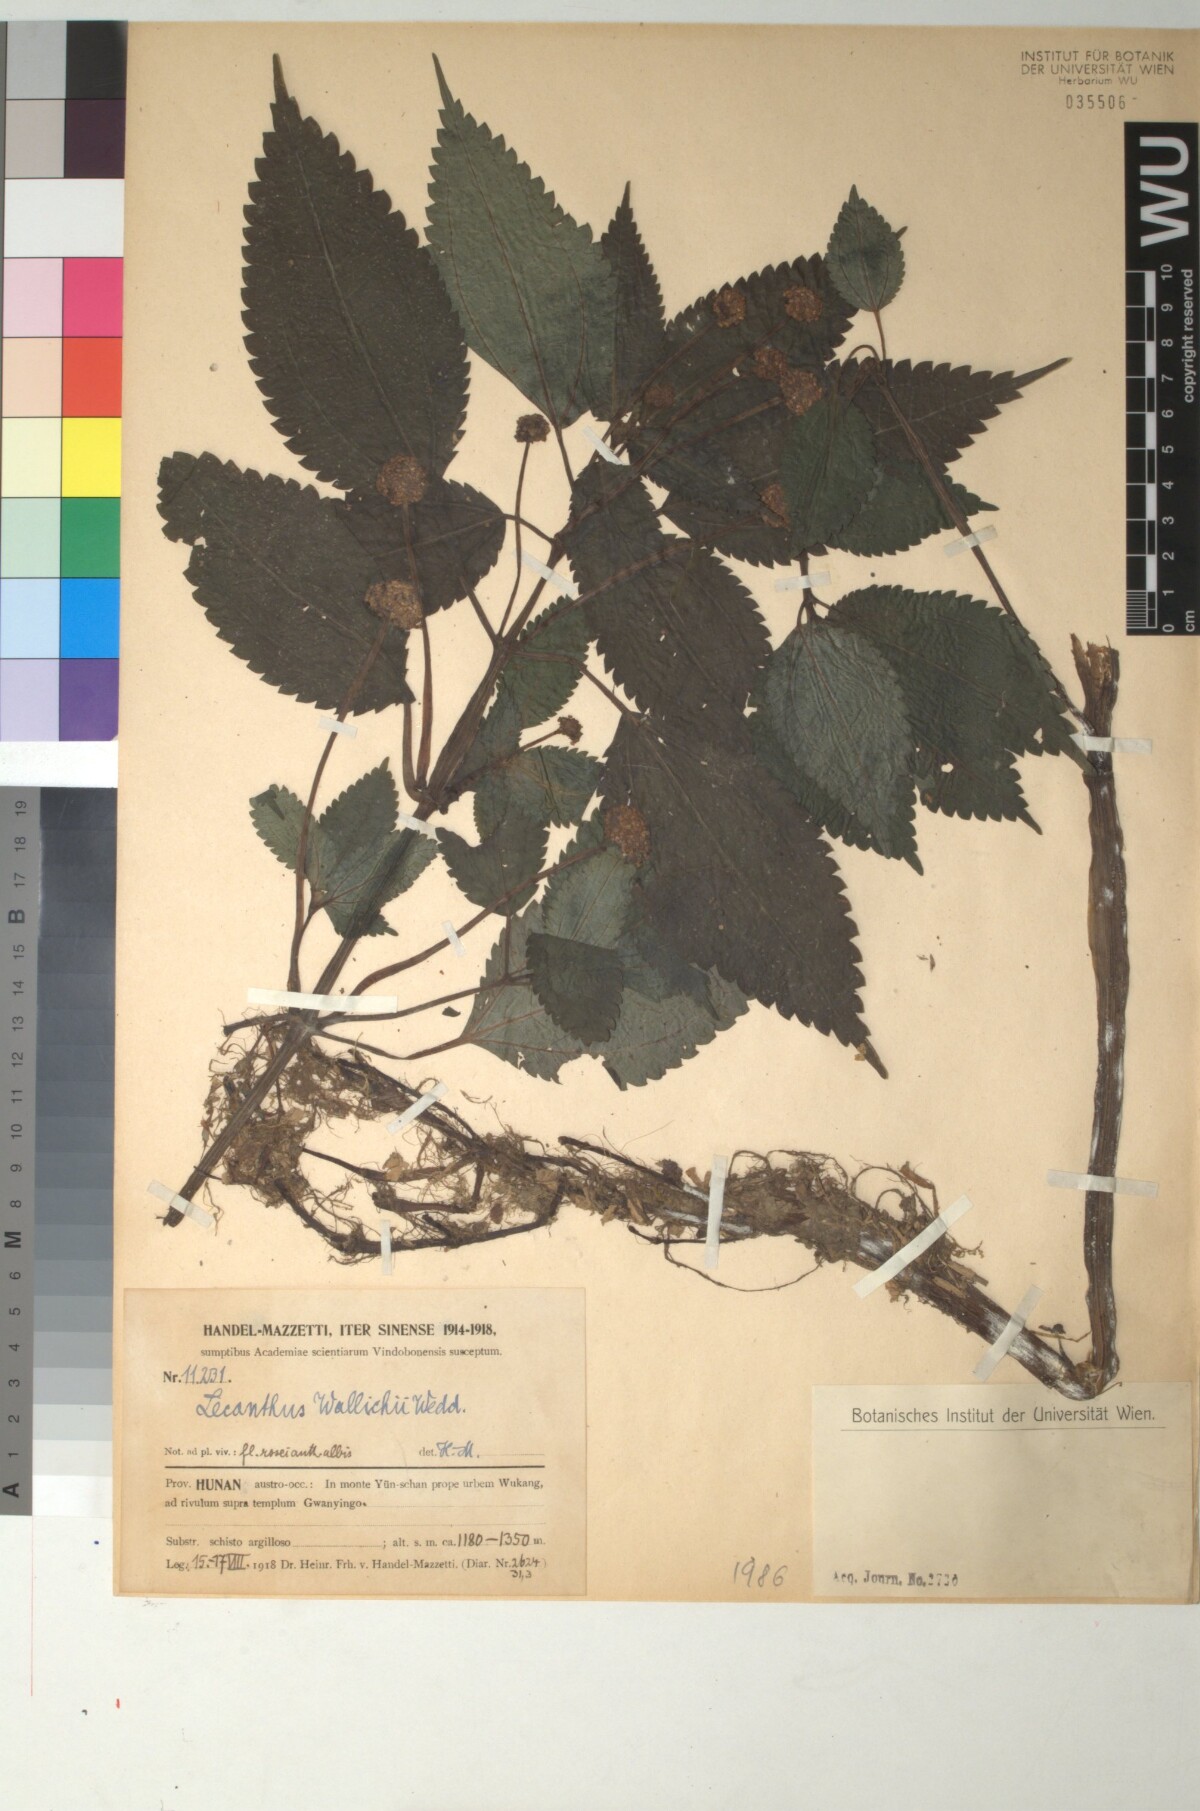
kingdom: Plantae
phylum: Tracheophyta
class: Magnoliopsida
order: Rosales
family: Urticaceae
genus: Lecanthus
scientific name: Lecanthus peduncularis
